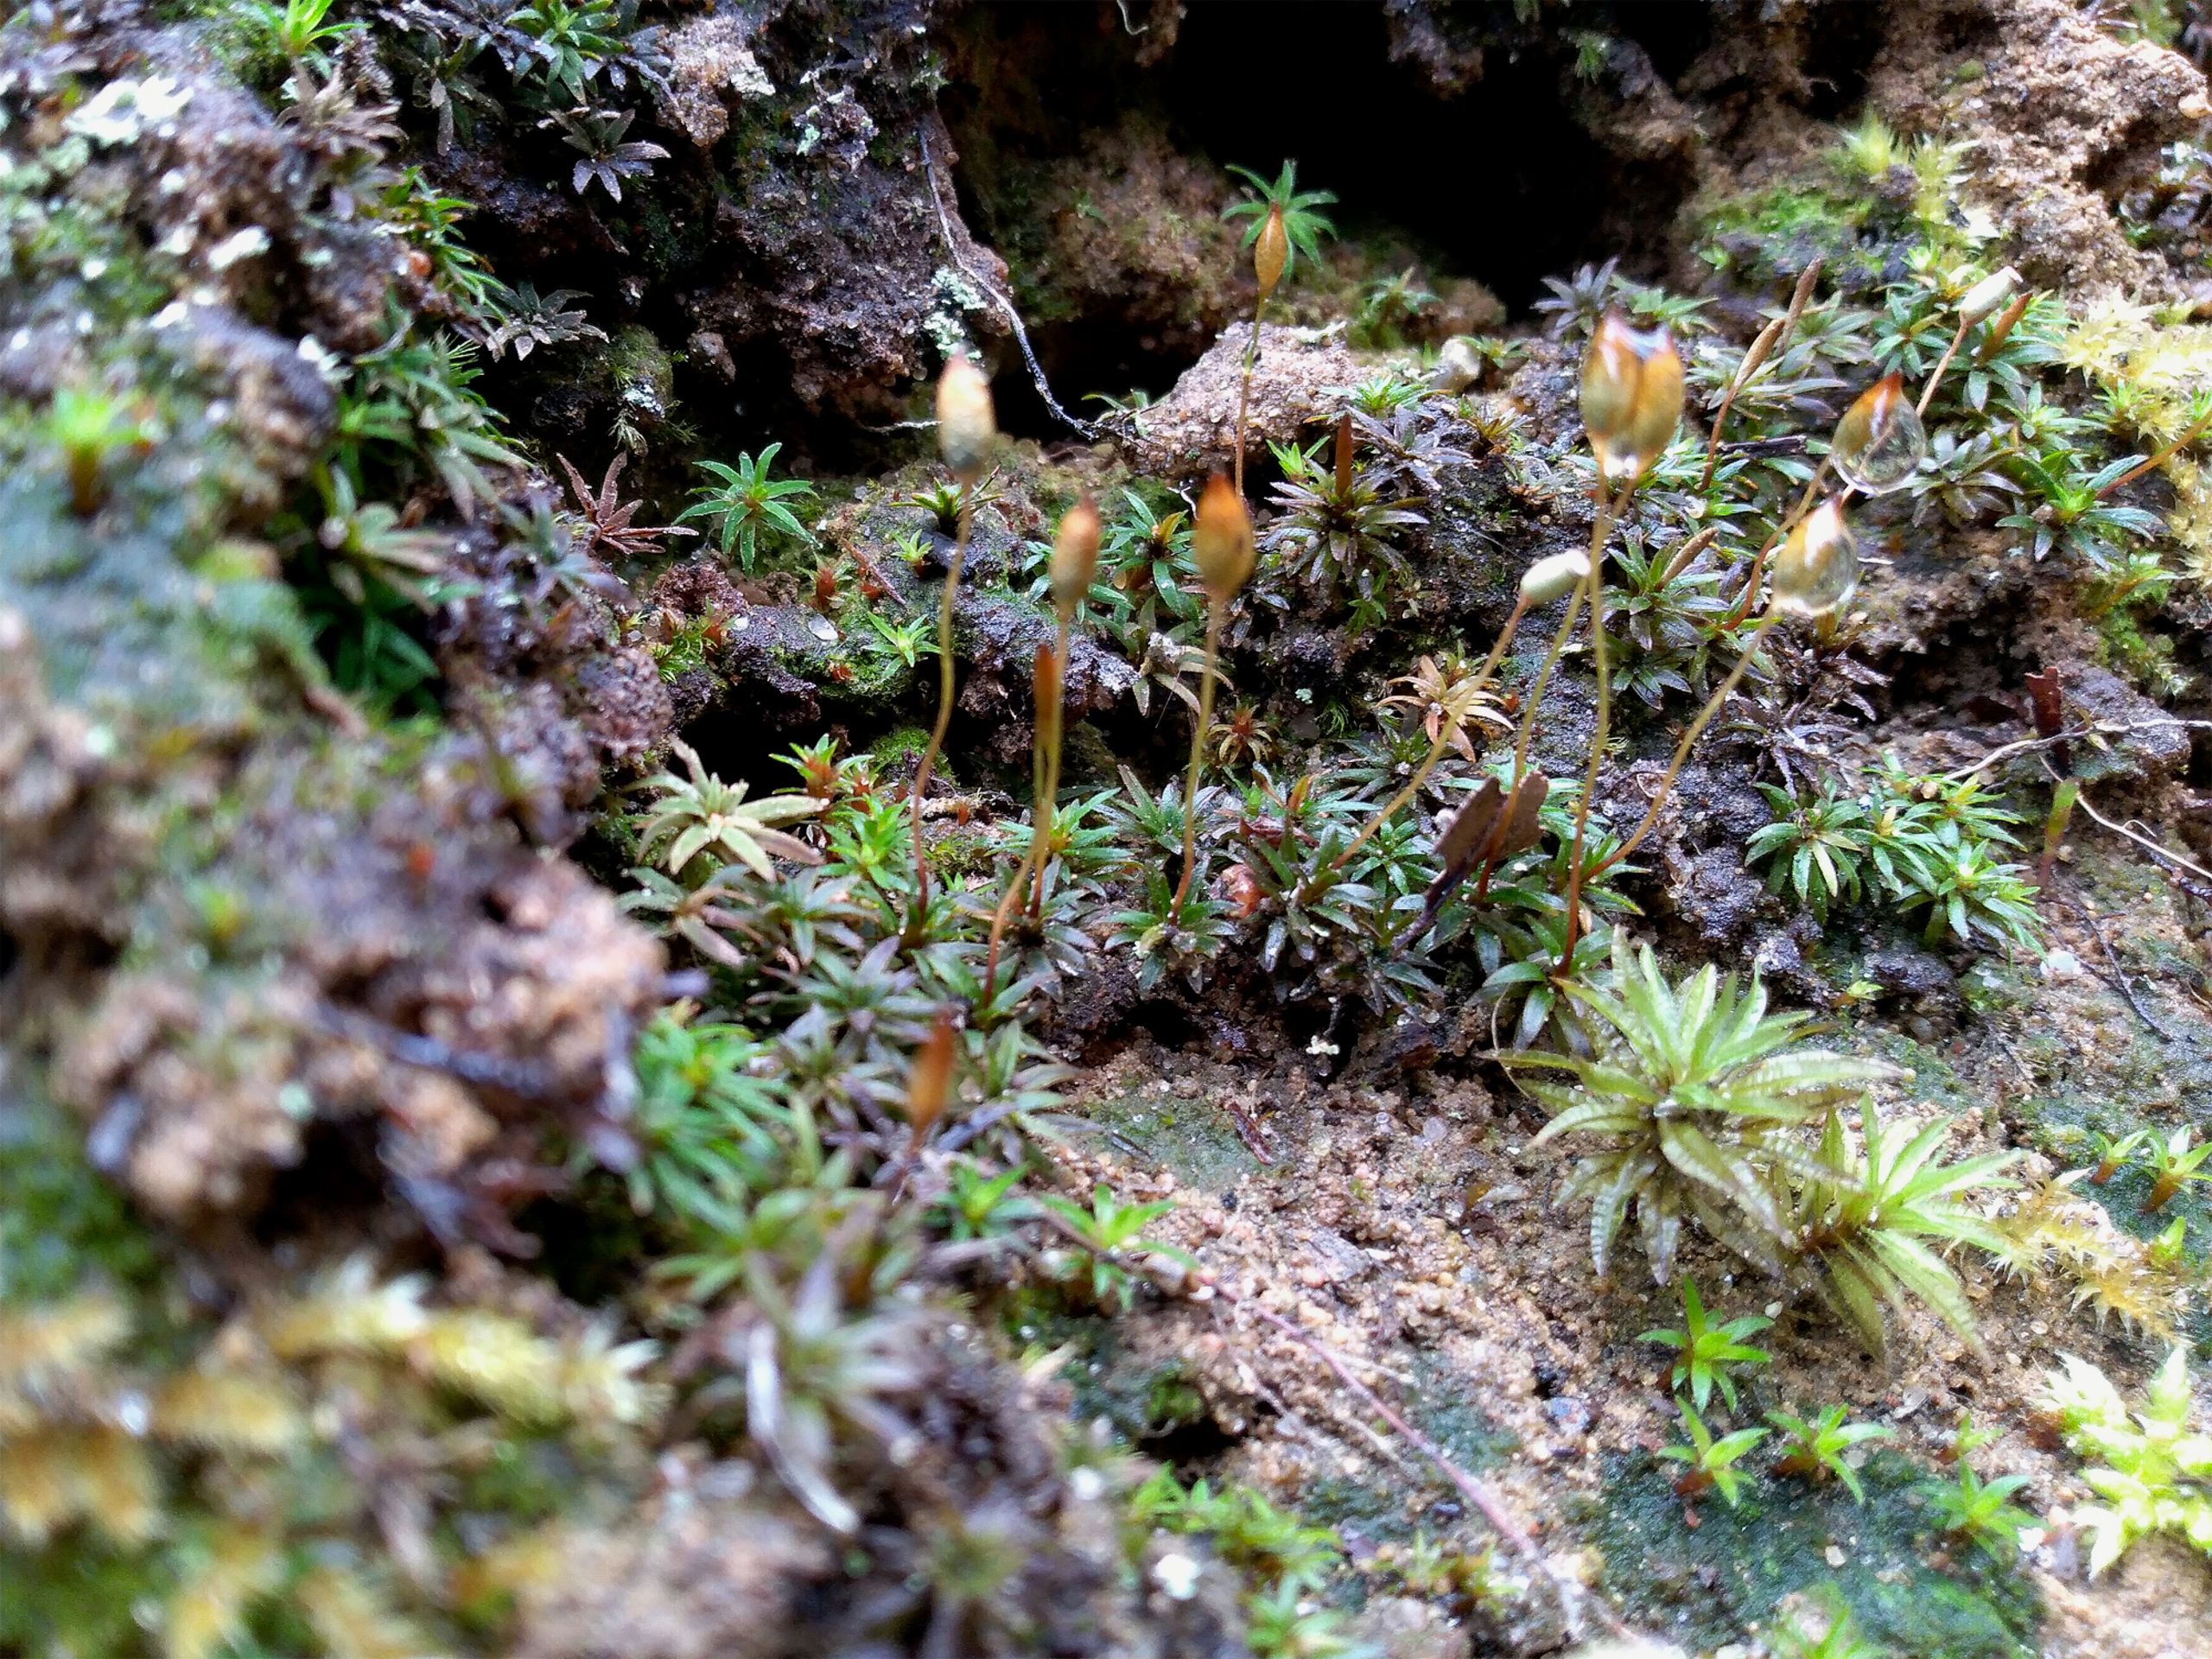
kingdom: Plantae
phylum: Bryophyta
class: Polytrichopsida
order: Polytrichales
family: Polytrichaceae
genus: Pogonatum
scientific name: Pogonatum aloides
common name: Smal urnekapsel
